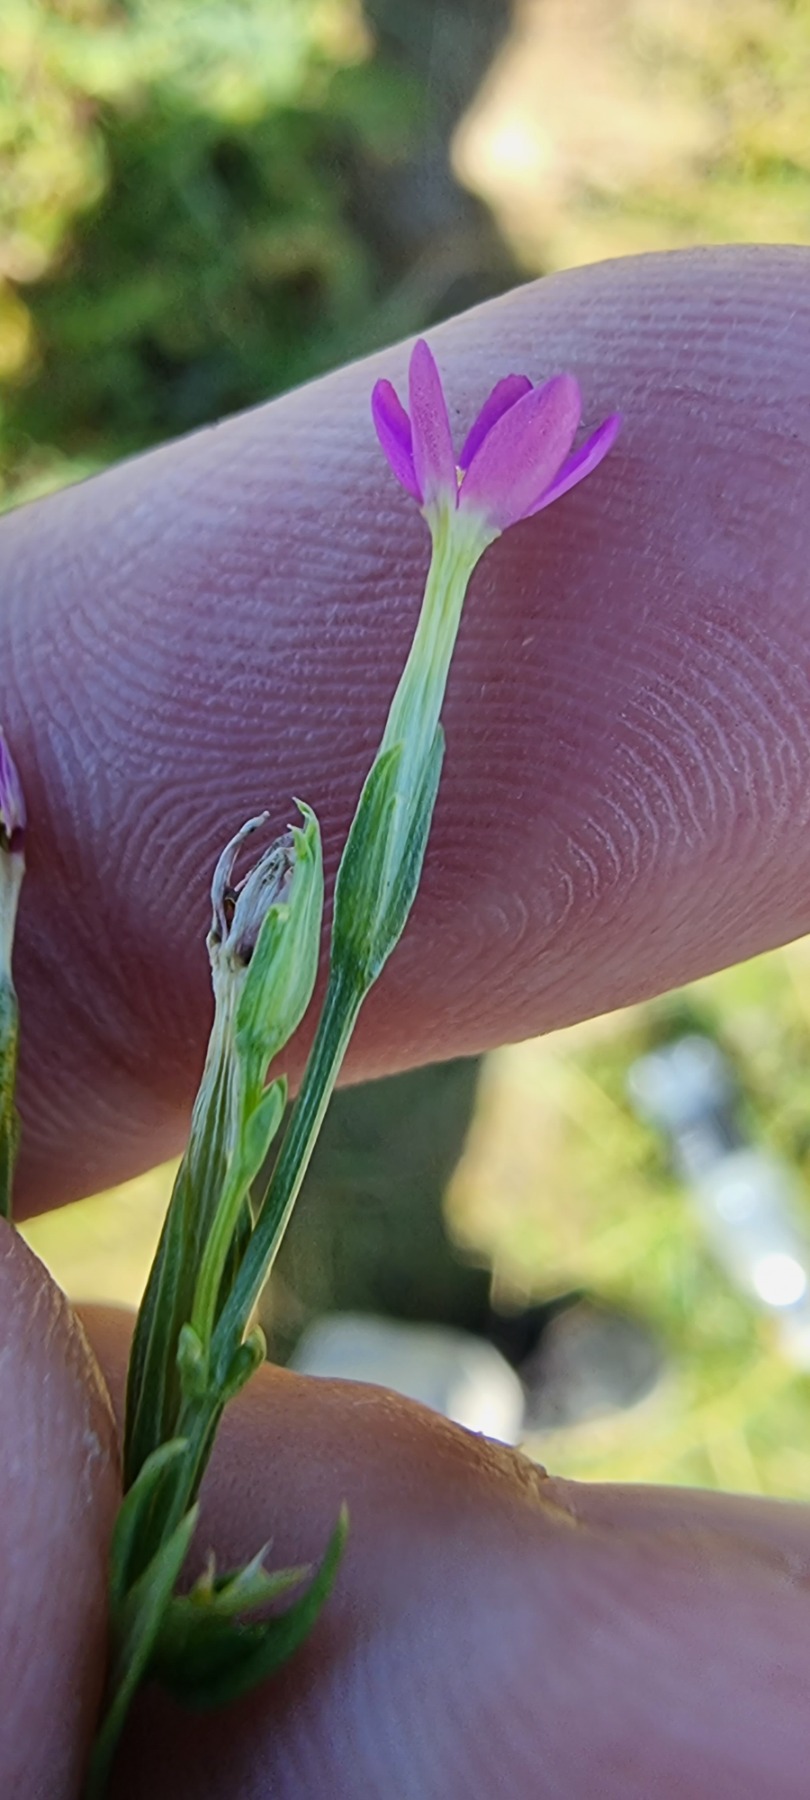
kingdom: Plantae
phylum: Tracheophyta
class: Magnoliopsida
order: Gentianales
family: Gentianaceae
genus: Centaurium
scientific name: Centaurium pulchellum
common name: Liden tusindgylden
